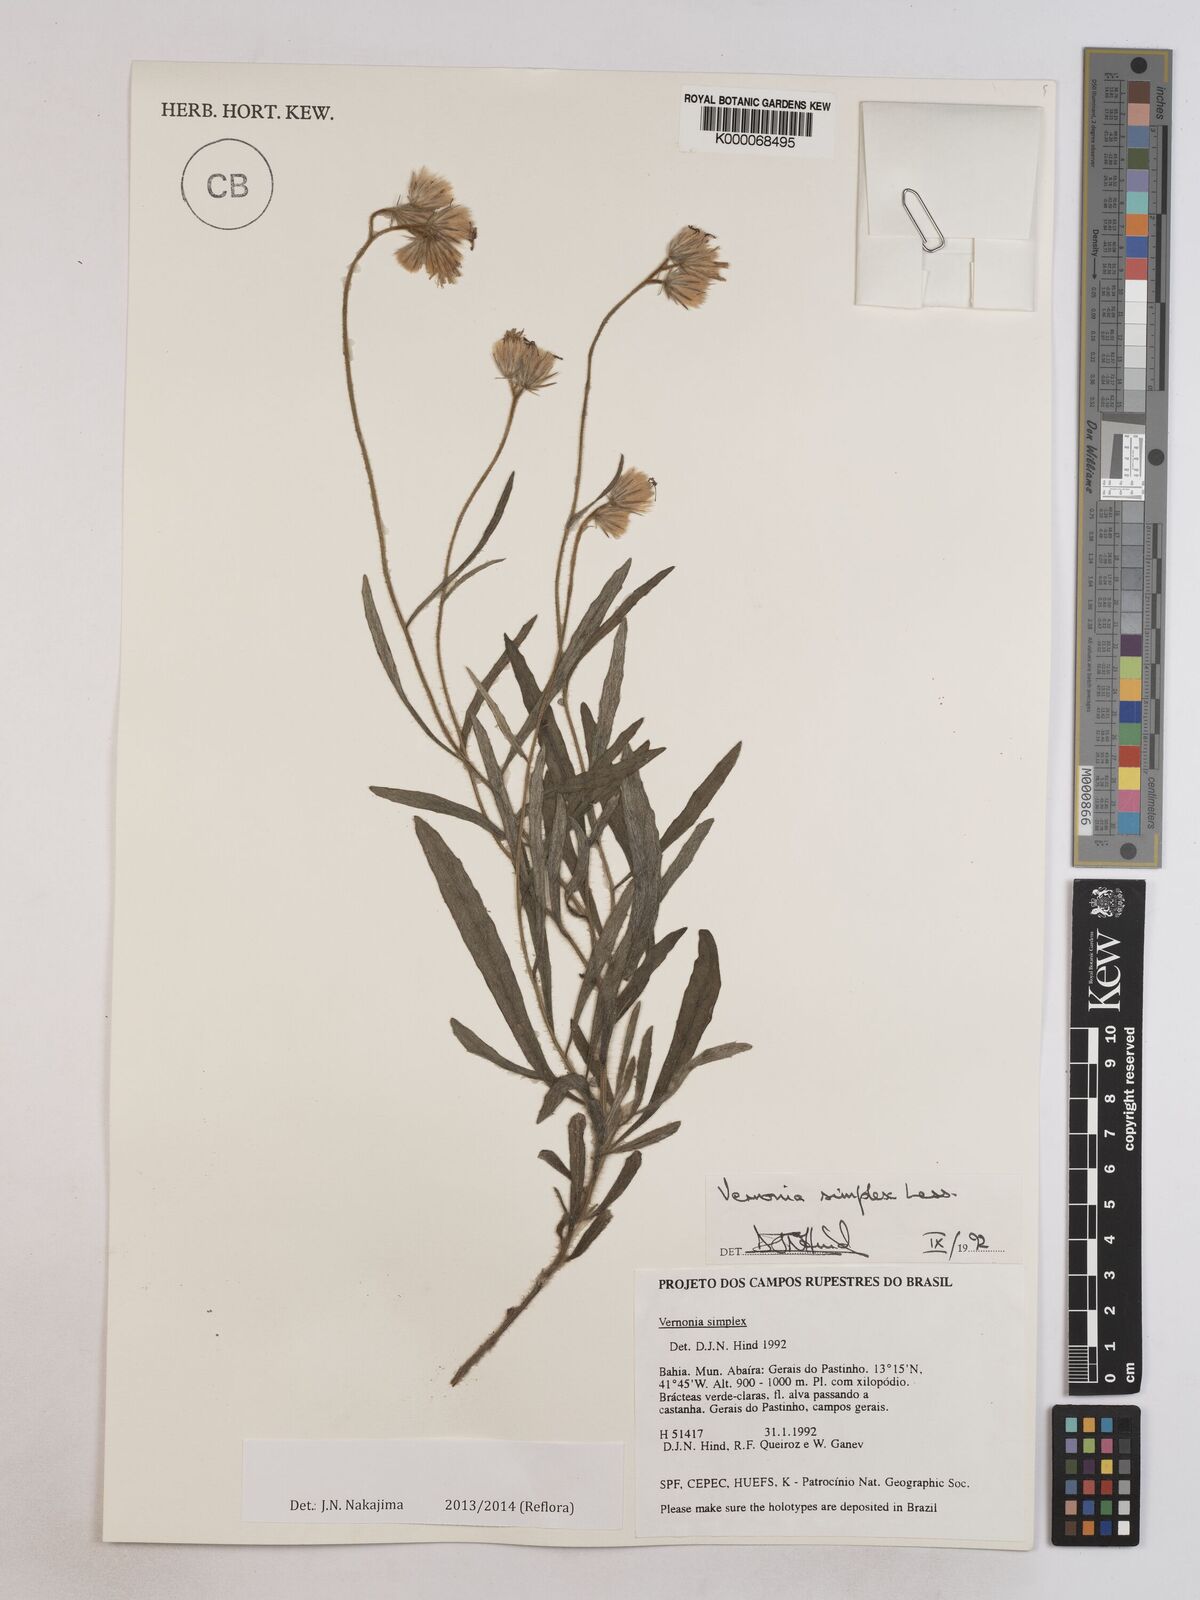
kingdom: Plantae
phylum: Tracheophyta
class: Magnoliopsida
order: Asterales
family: Asteraceae
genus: Chrysolaena
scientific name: Chrysolaena simplex
